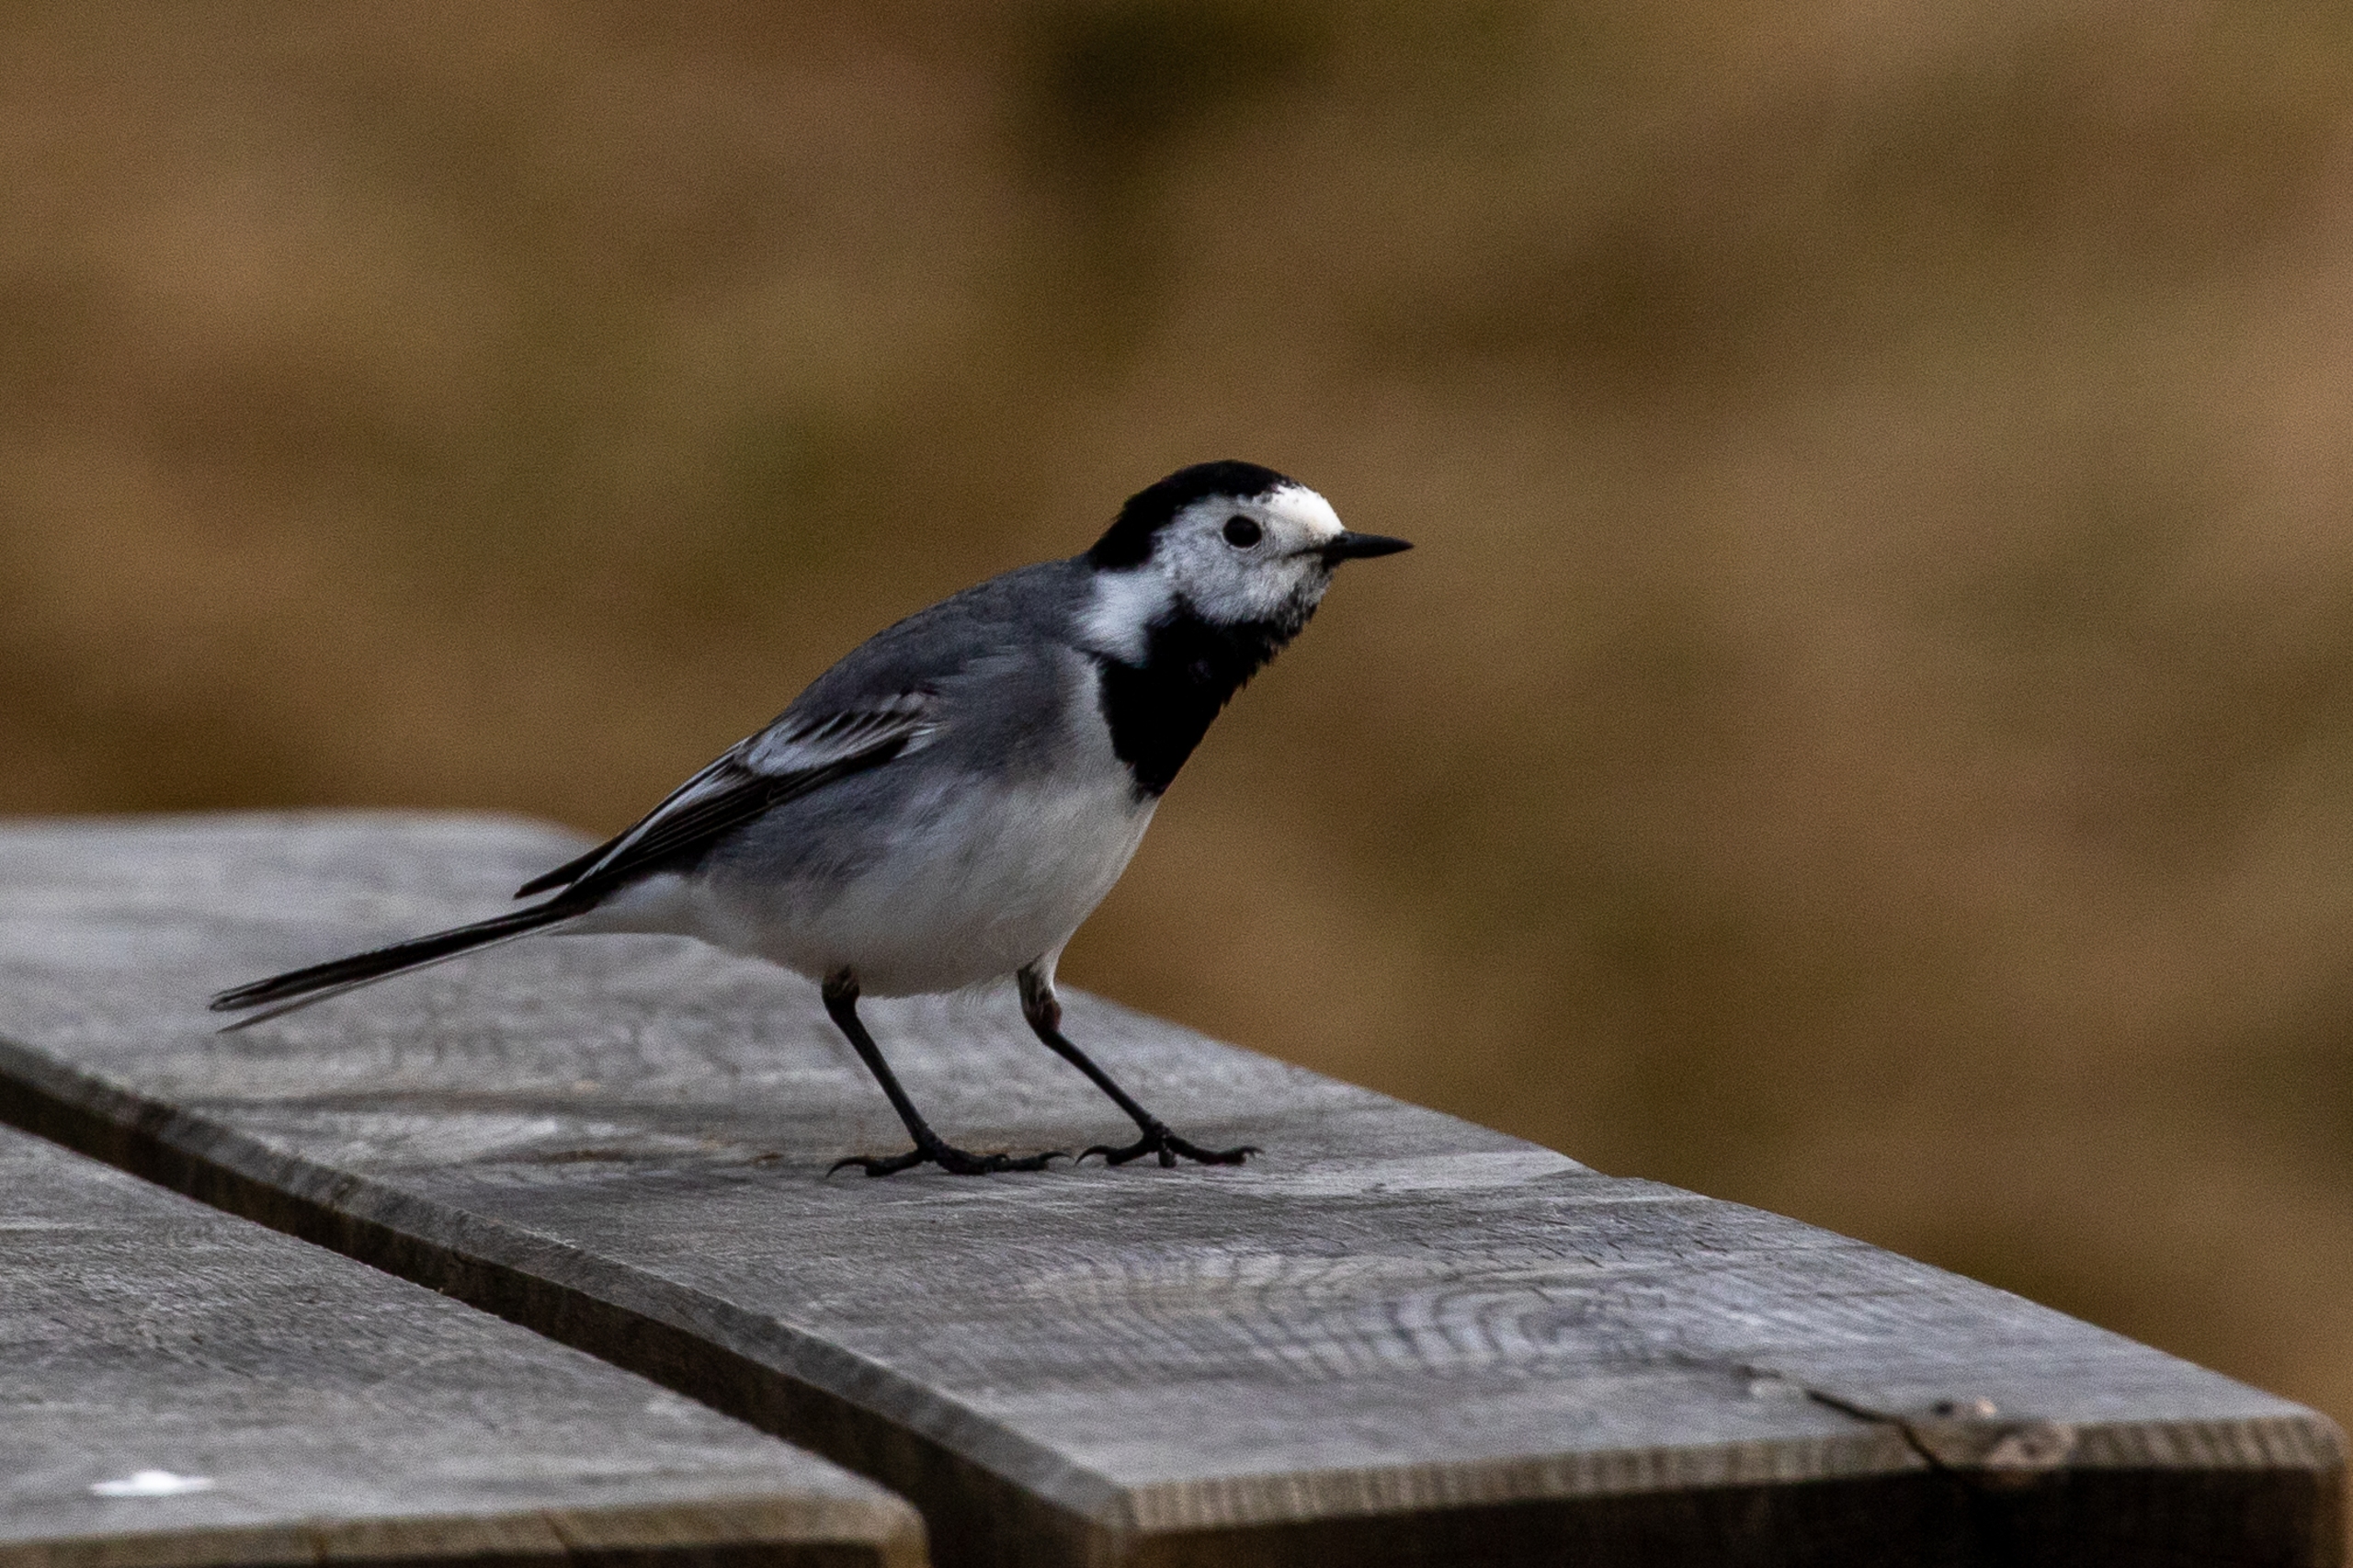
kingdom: Animalia
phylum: Chordata
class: Aves
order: Passeriformes
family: Motacillidae
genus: Motacilla
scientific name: Motacilla alba
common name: Hvid vipstjert
